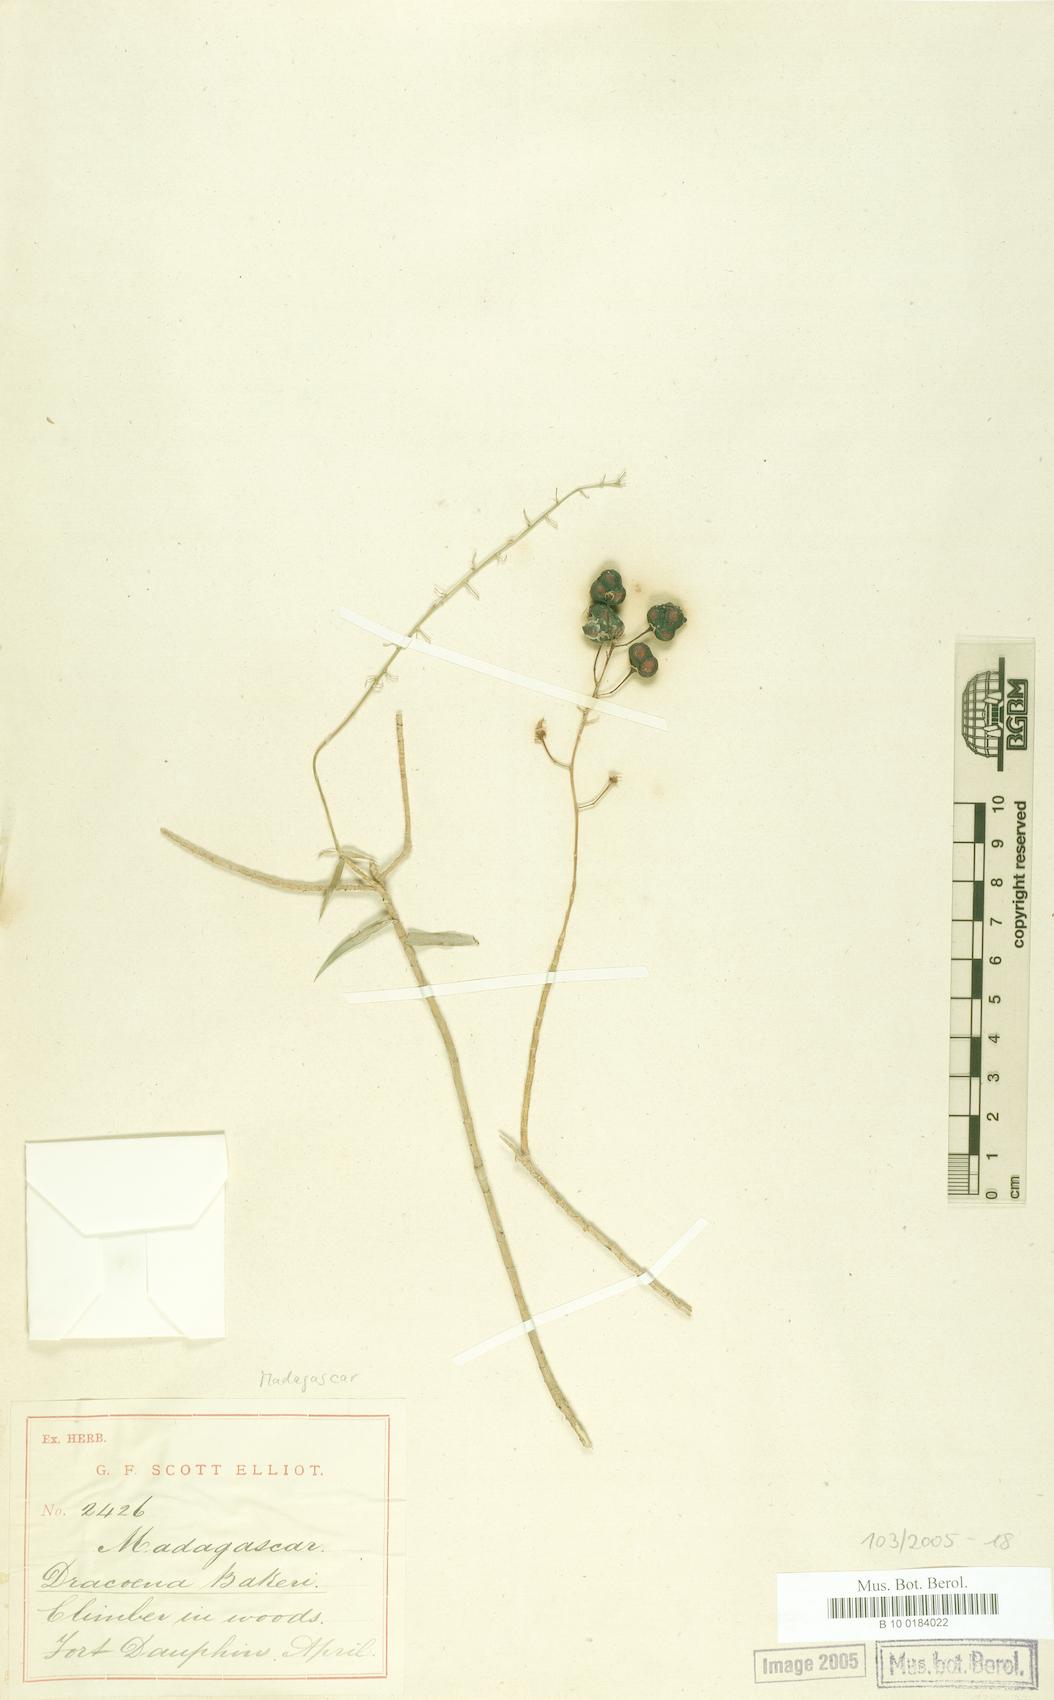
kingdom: Plantae
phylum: Tracheophyta
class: Liliopsida
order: Asparagales
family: Asparagaceae
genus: Dracaena
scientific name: Dracaena reflexa
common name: Song-of-india
